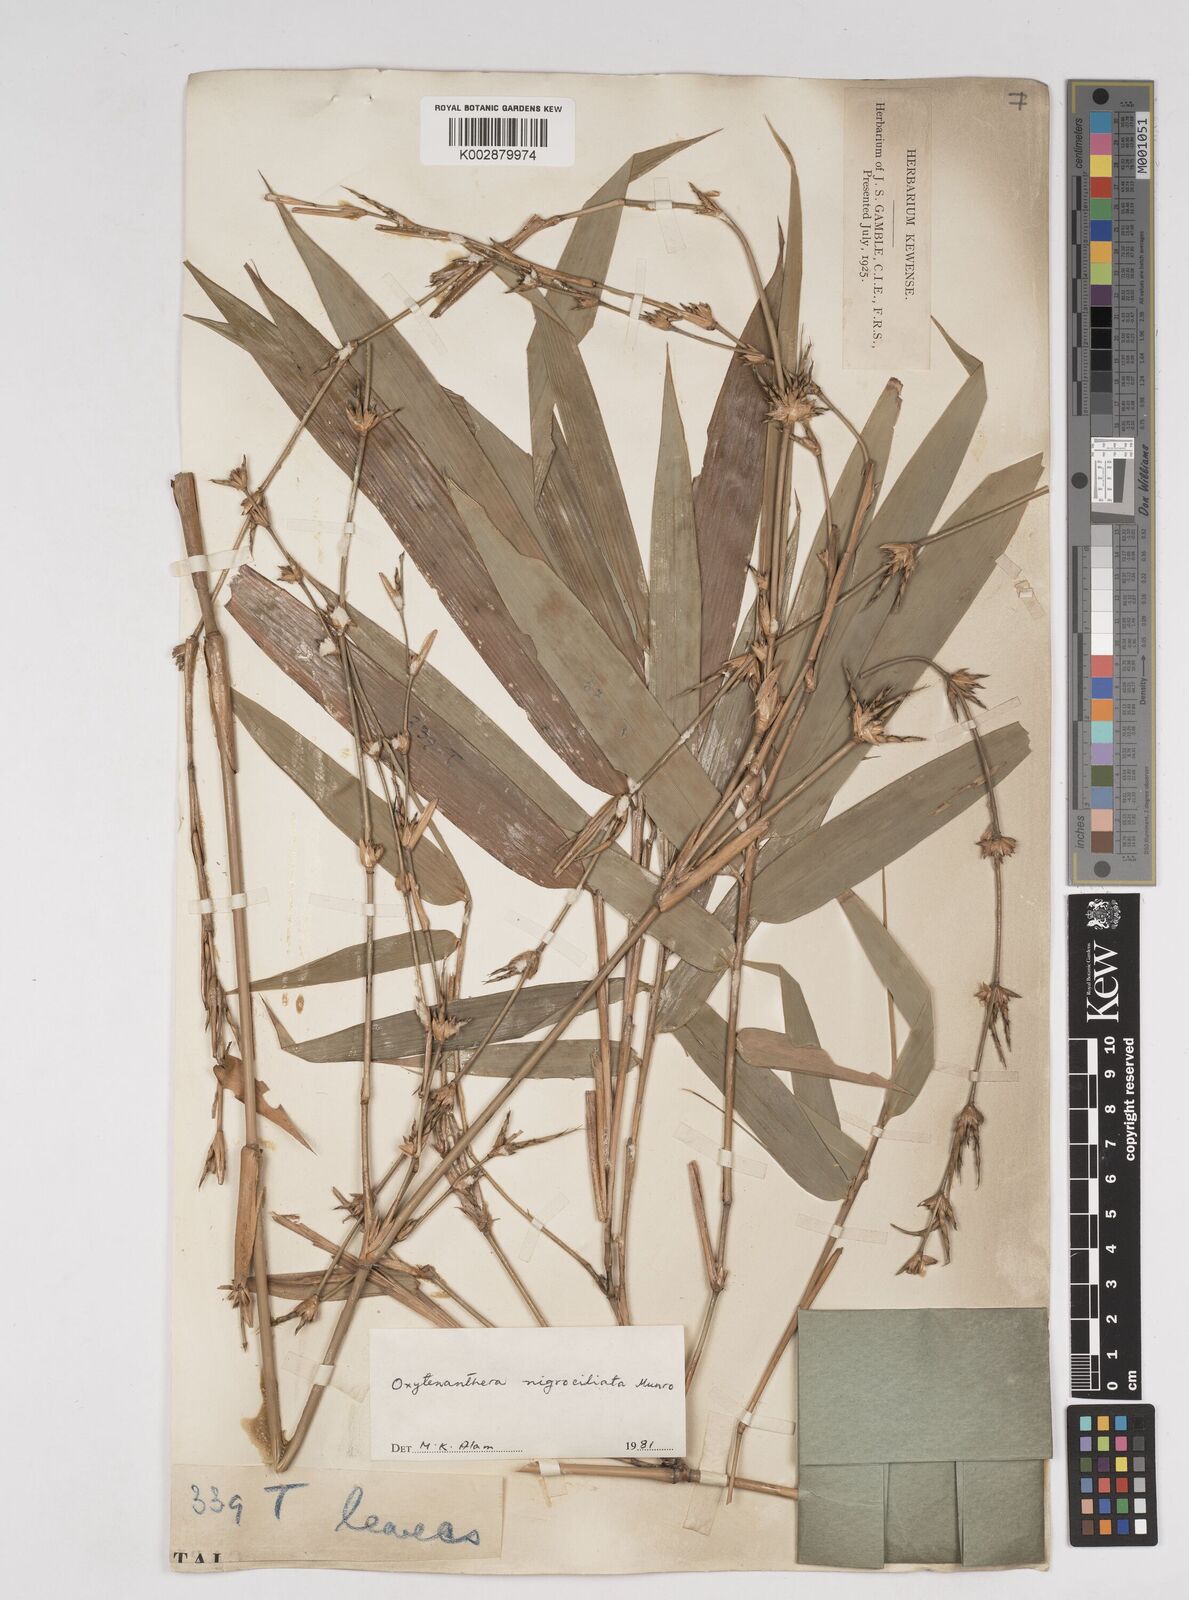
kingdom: Plantae
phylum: Tracheophyta
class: Liliopsida
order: Poales
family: Poaceae
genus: Gigantochloa
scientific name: Gigantochloa nigrociliata
